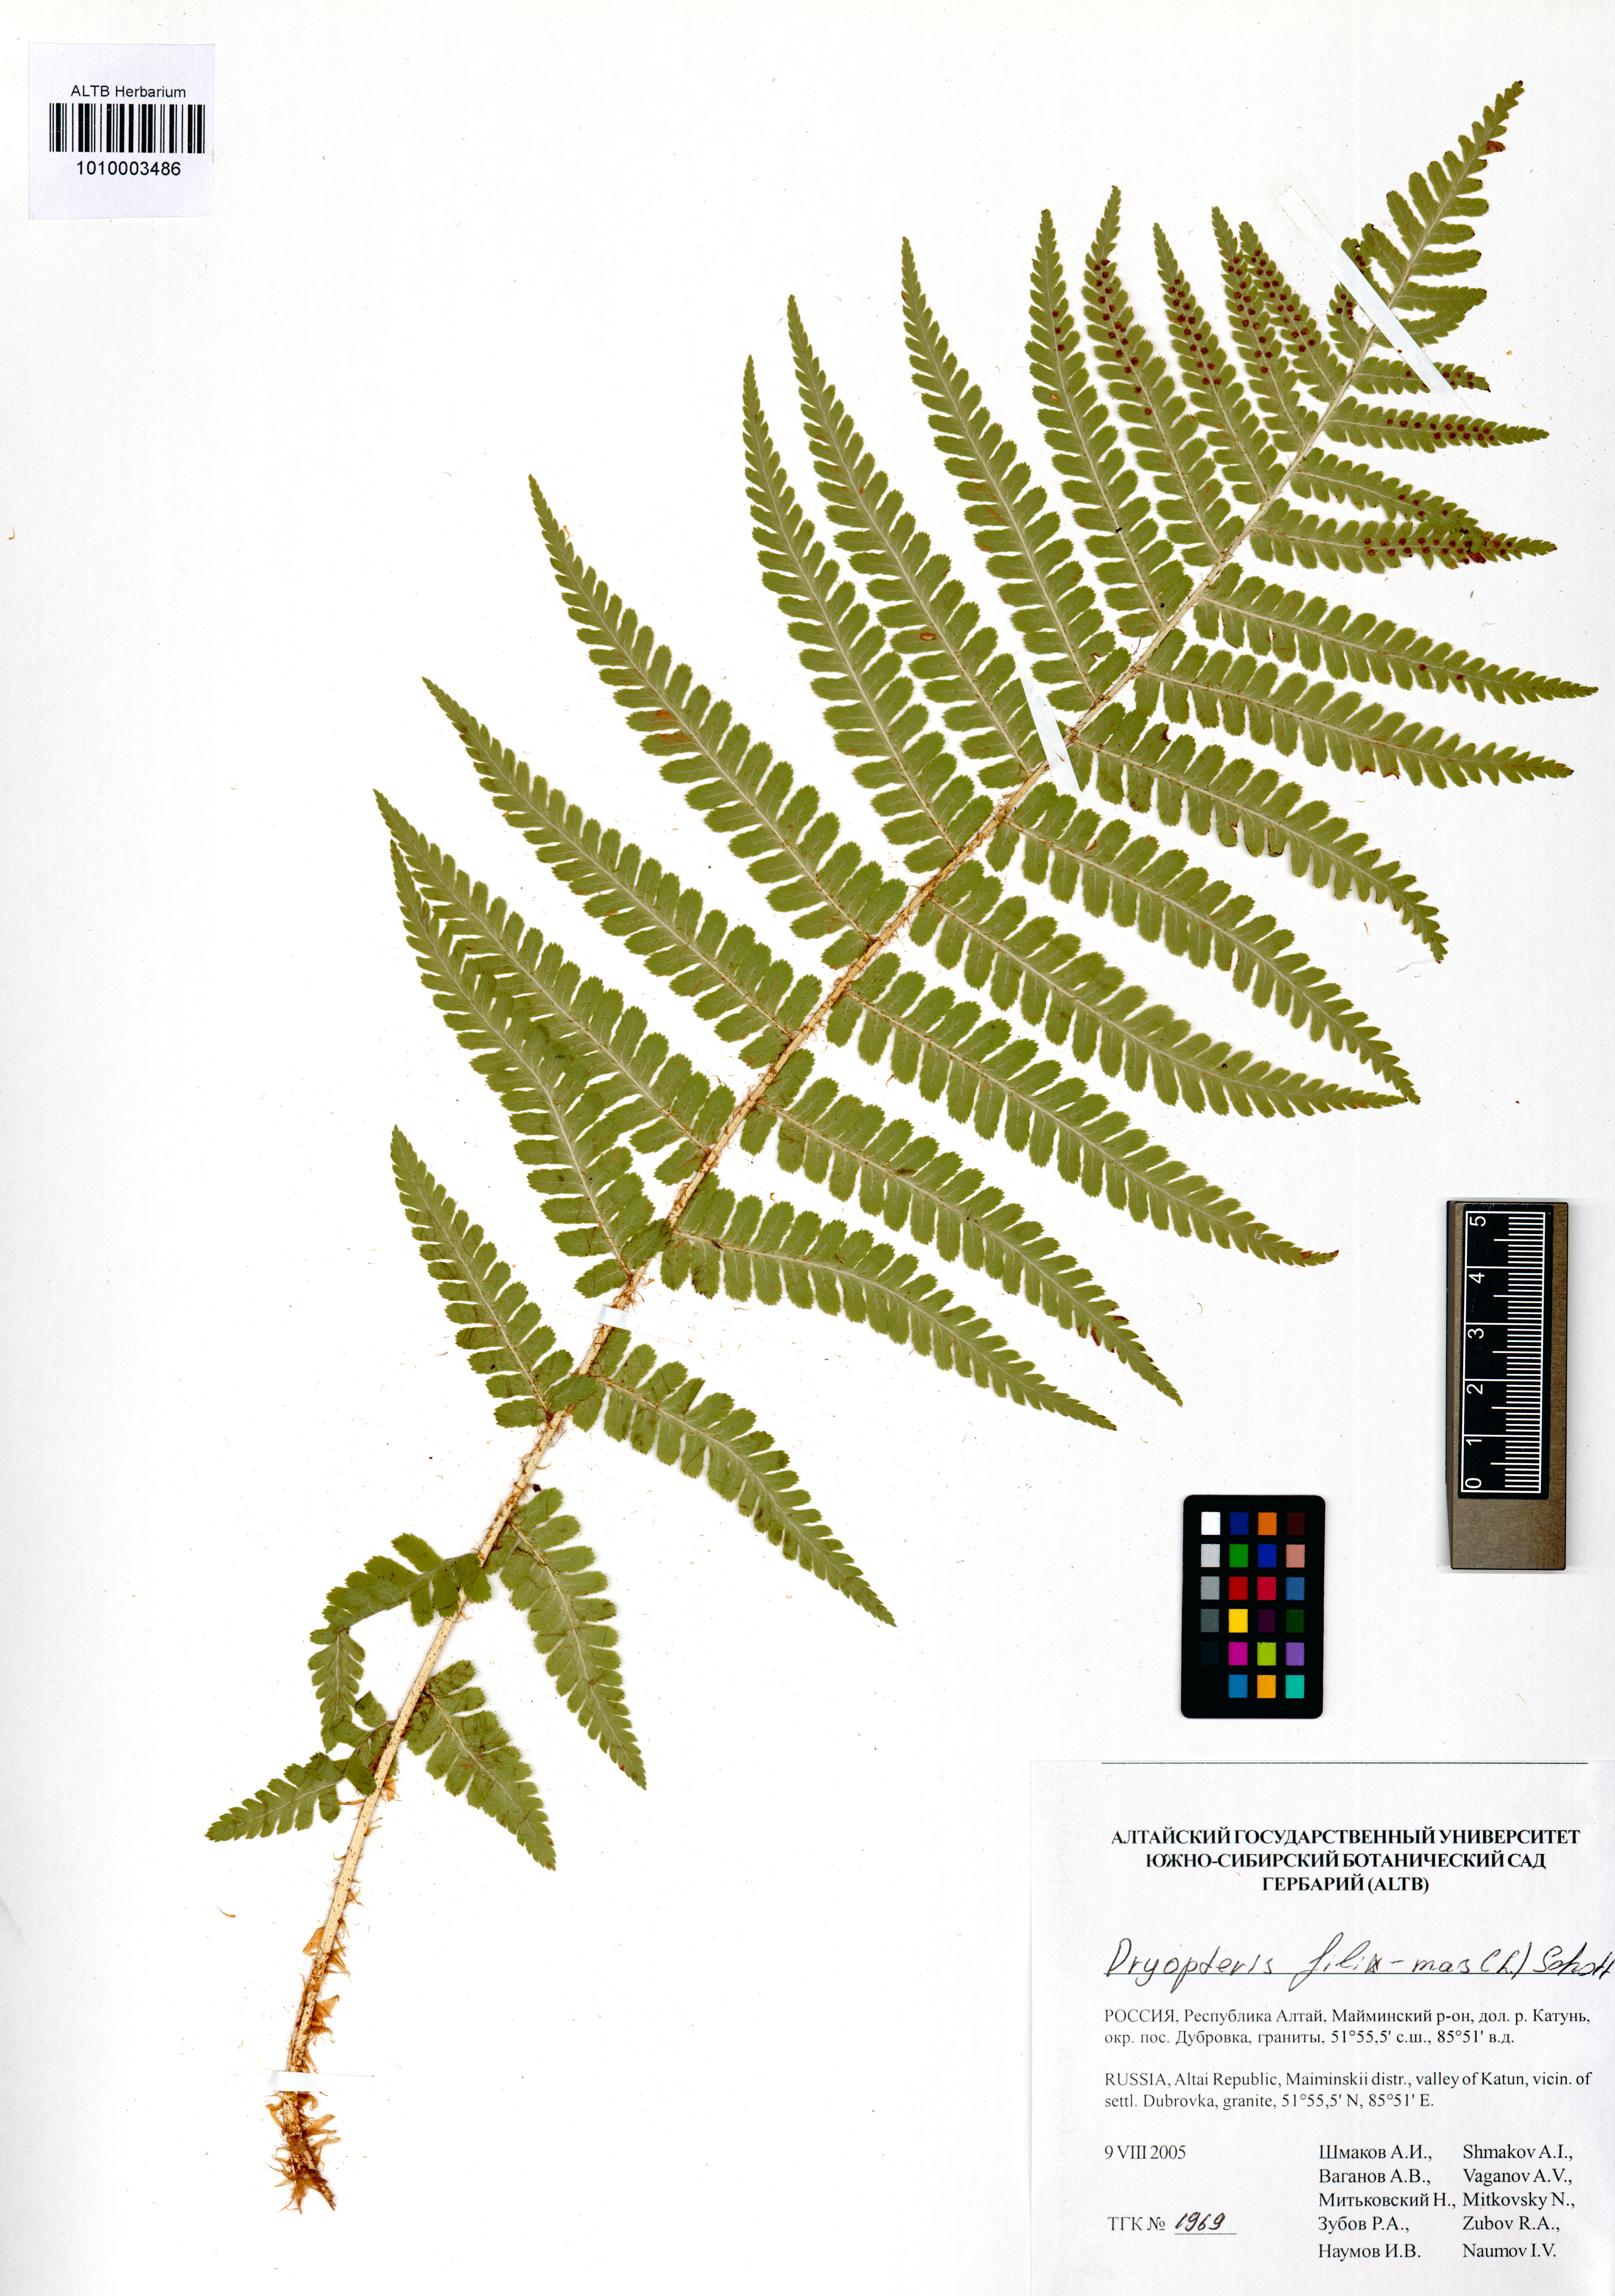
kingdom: Plantae
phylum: Tracheophyta
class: Polypodiopsida
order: Polypodiales
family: Dryopteridaceae
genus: Dryopteris
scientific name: Dryopteris filix-mas
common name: Male fern
